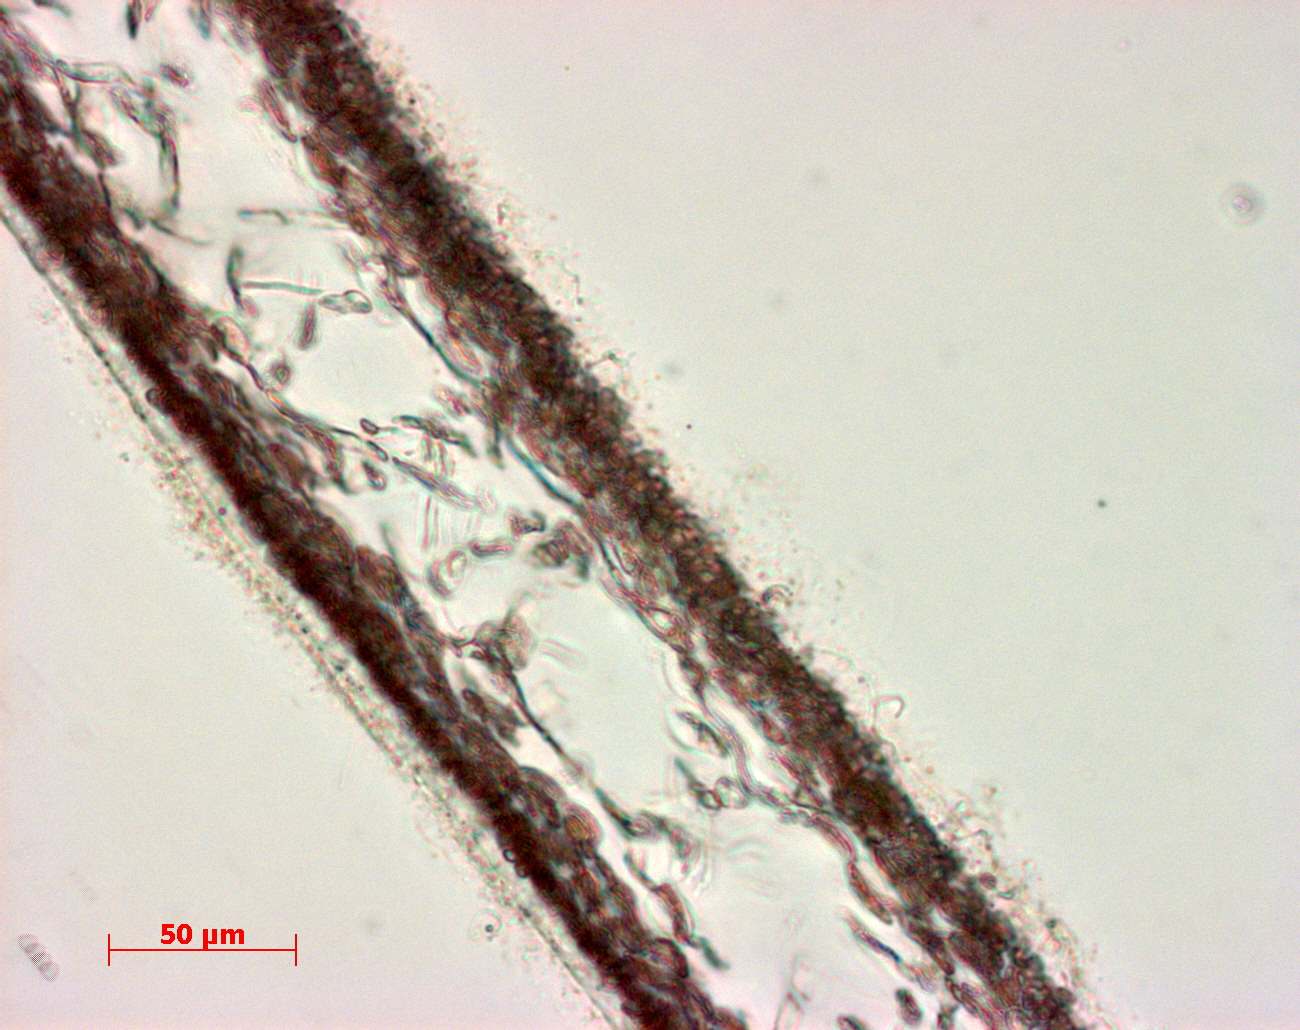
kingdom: Plantae
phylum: Rhodophyta
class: Florideophyceae
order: Halymeniales
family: Halymeniaceae
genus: Cryptonemia
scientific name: Cryptonemia latissima
